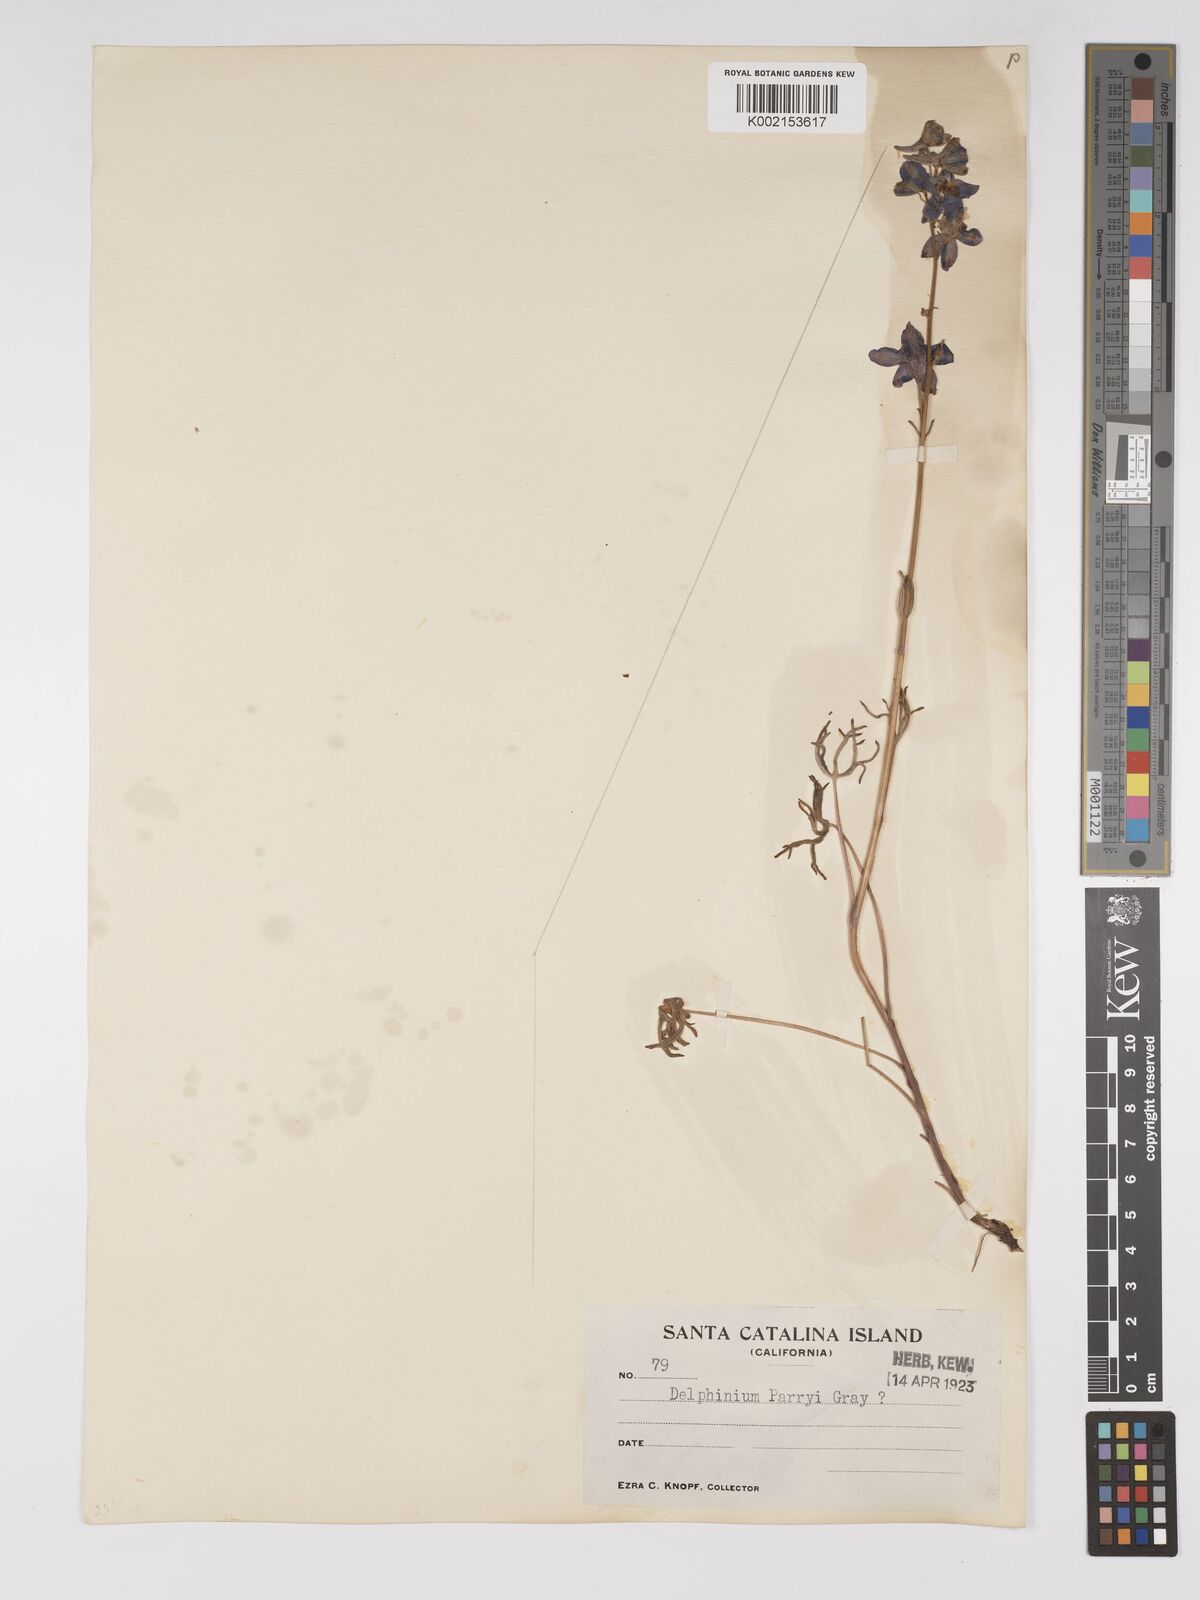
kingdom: Plantae
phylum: Tracheophyta
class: Magnoliopsida
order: Ranunculales
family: Ranunculaceae
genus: Delphinium
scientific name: Delphinium parryi
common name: Parry's larkspur
